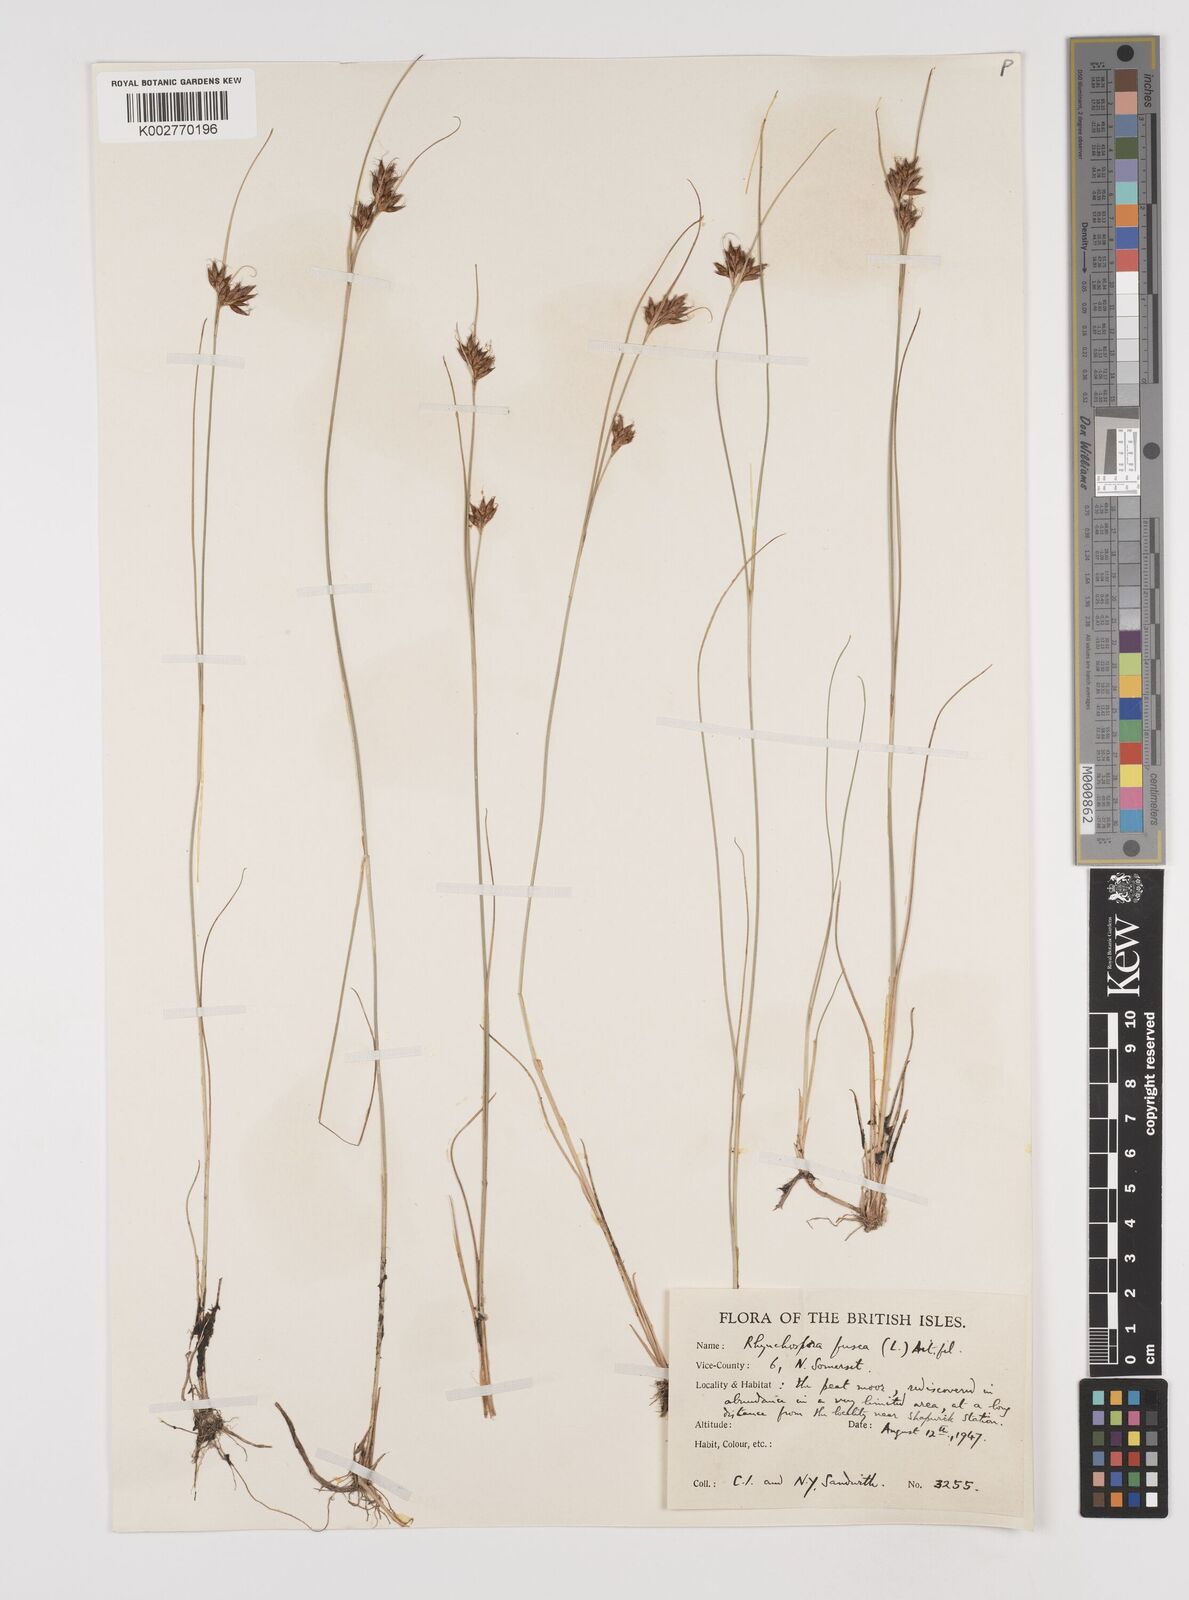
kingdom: Plantae
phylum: Tracheophyta
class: Liliopsida
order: Poales
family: Cyperaceae
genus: Rhynchospora
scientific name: Rhynchospora fusca
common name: Brown beak-sedge
